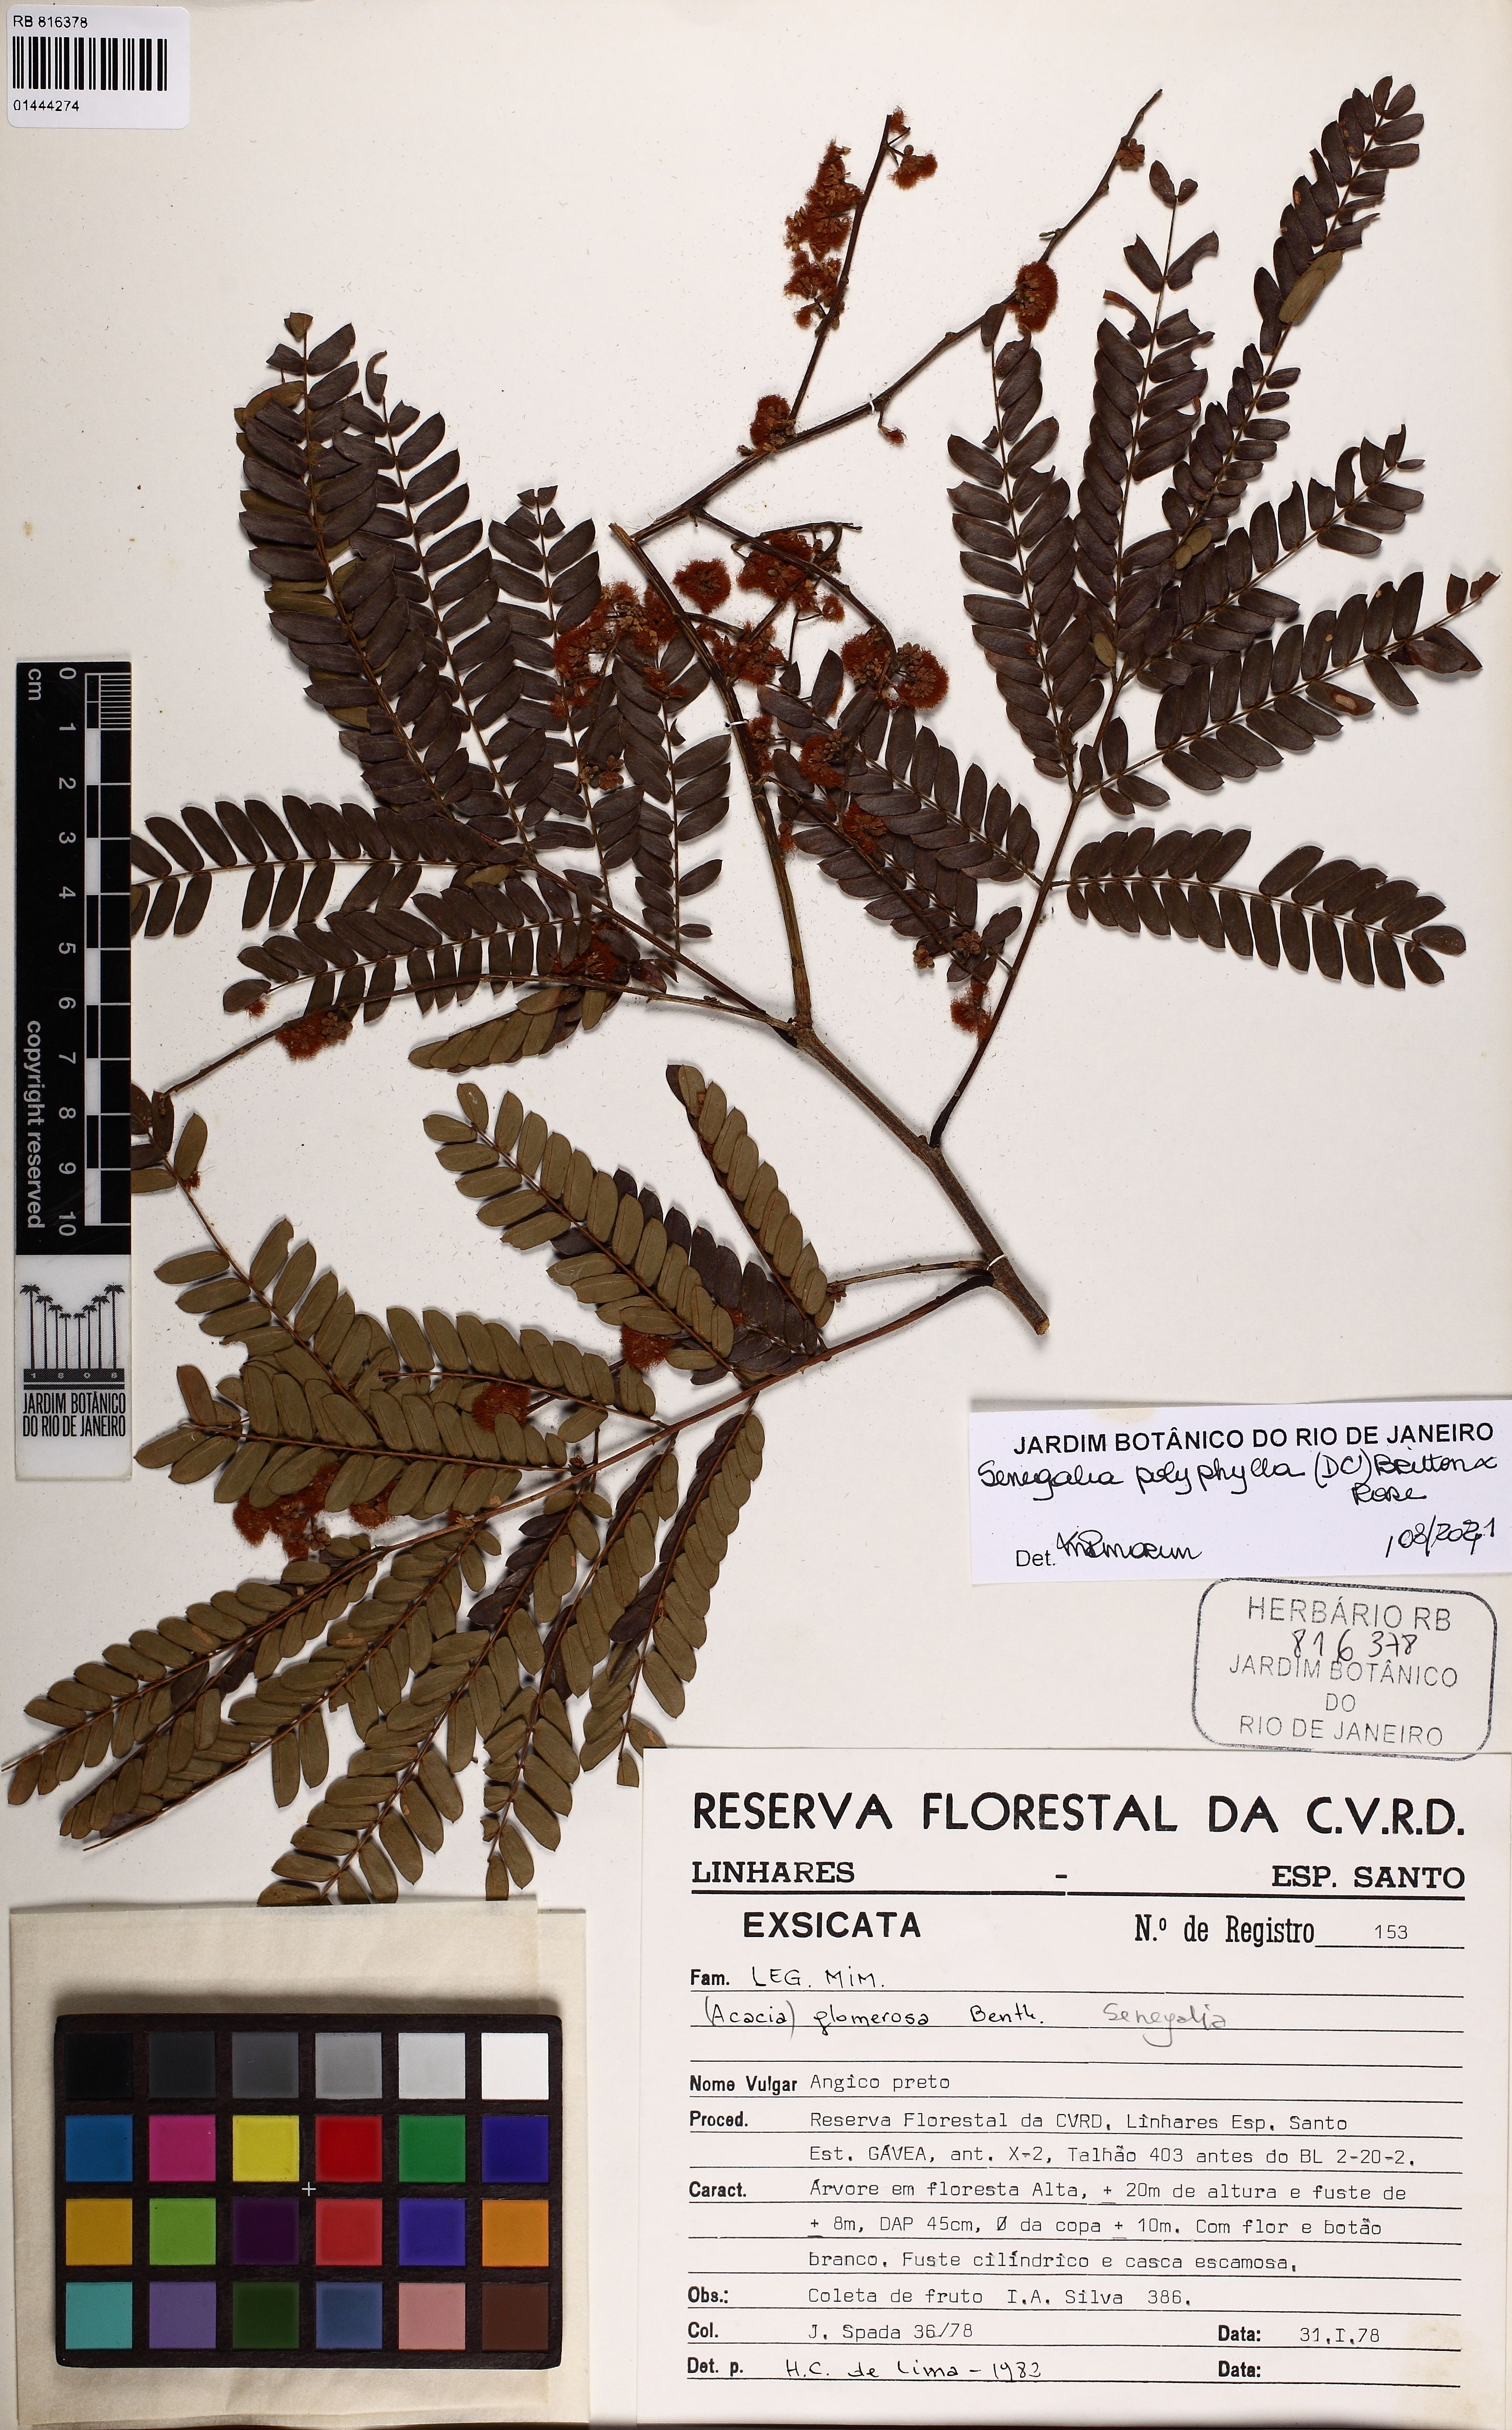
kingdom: Plantae
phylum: Tracheophyta
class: Magnoliopsida
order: Fabales
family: Fabaceae
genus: Senegalia
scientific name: Senegalia polyphylla
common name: White-tamarind
